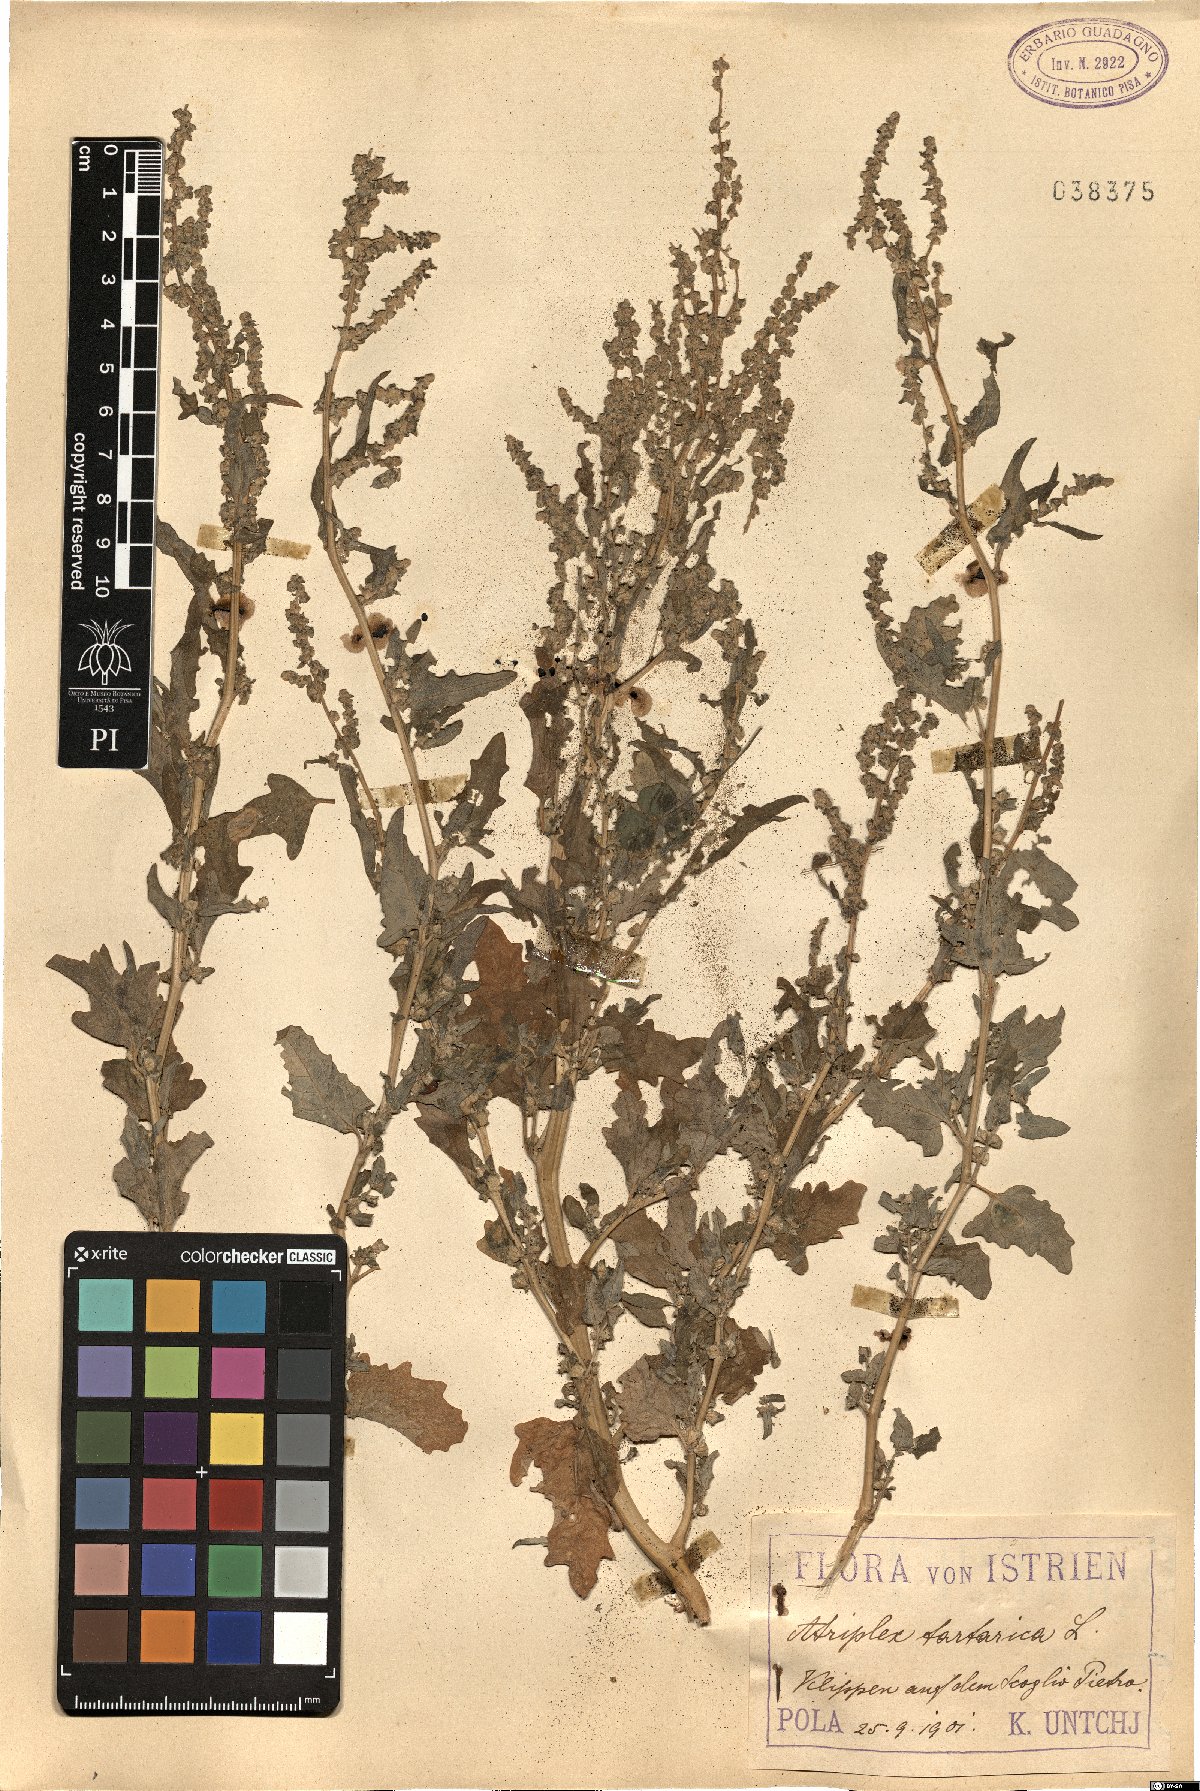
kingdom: Plantae
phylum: Tracheophyta
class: Magnoliopsida
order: Caryophyllales
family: Amaranthaceae
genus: Atriplex
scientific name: Atriplex tatarica
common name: Tatarian orache
